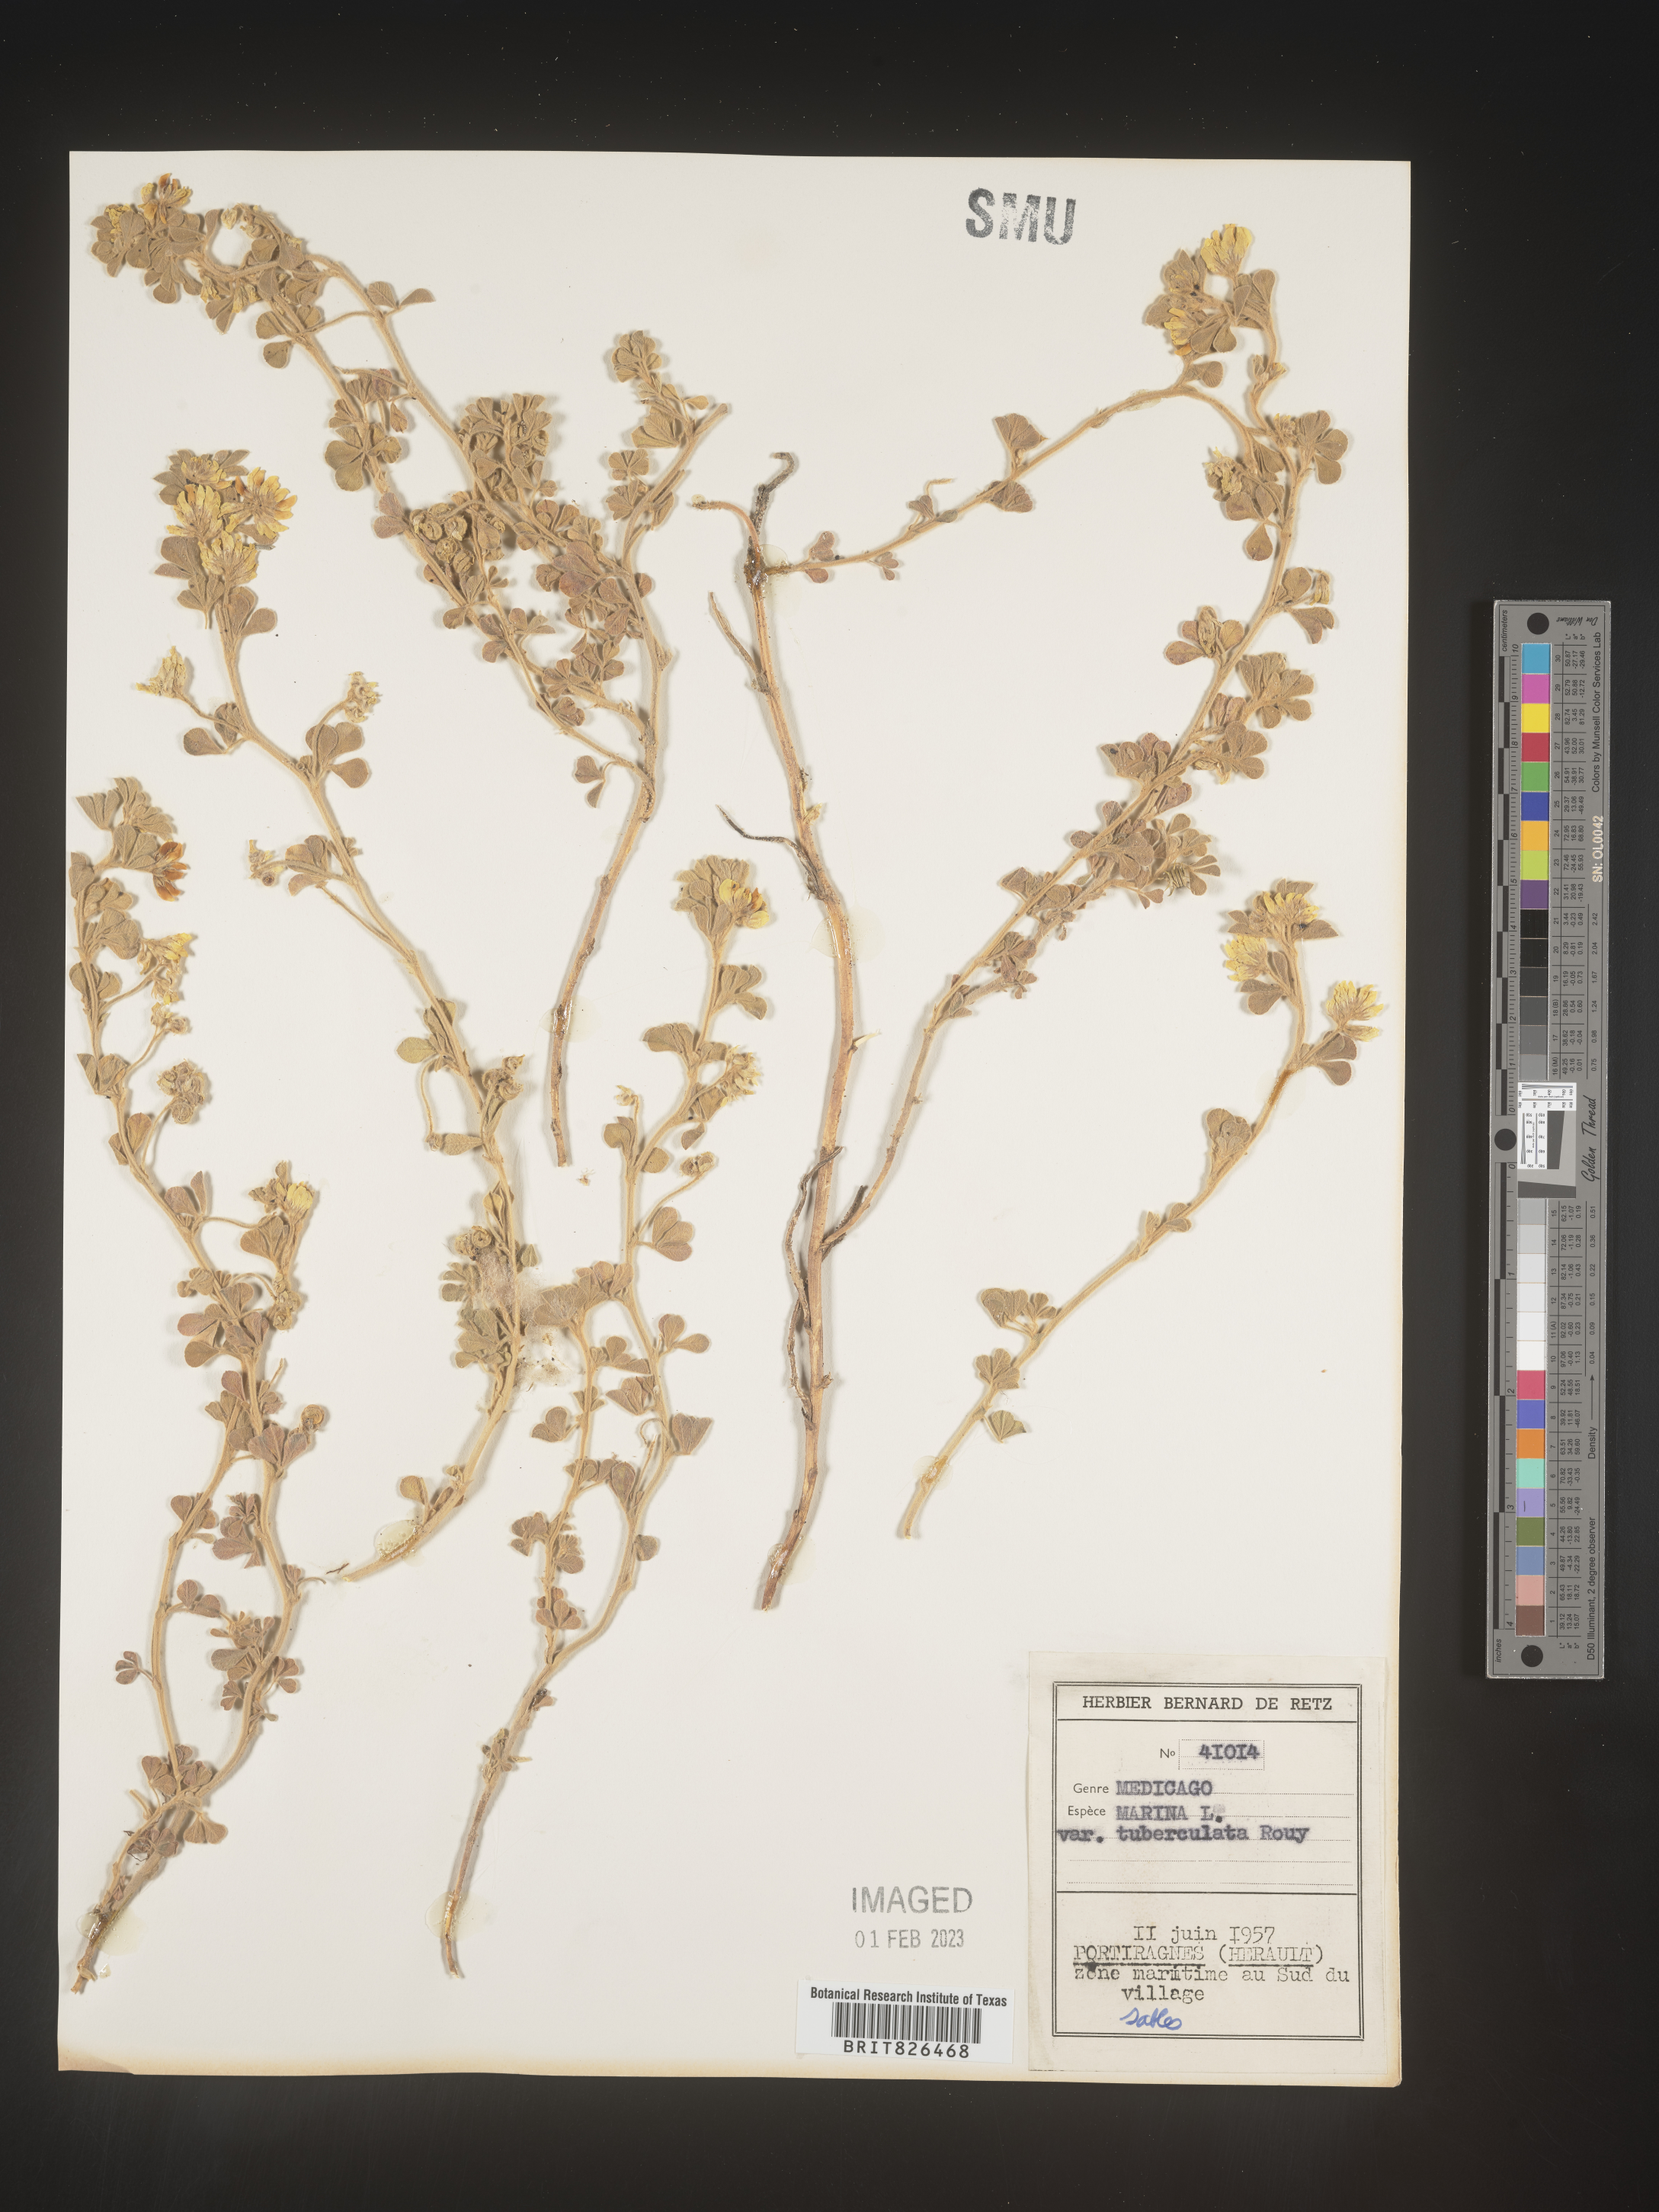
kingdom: Plantae
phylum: Tracheophyta
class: Magnoliopsida
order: Fabales
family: Fabaceae
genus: Medicago
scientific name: Medicago
